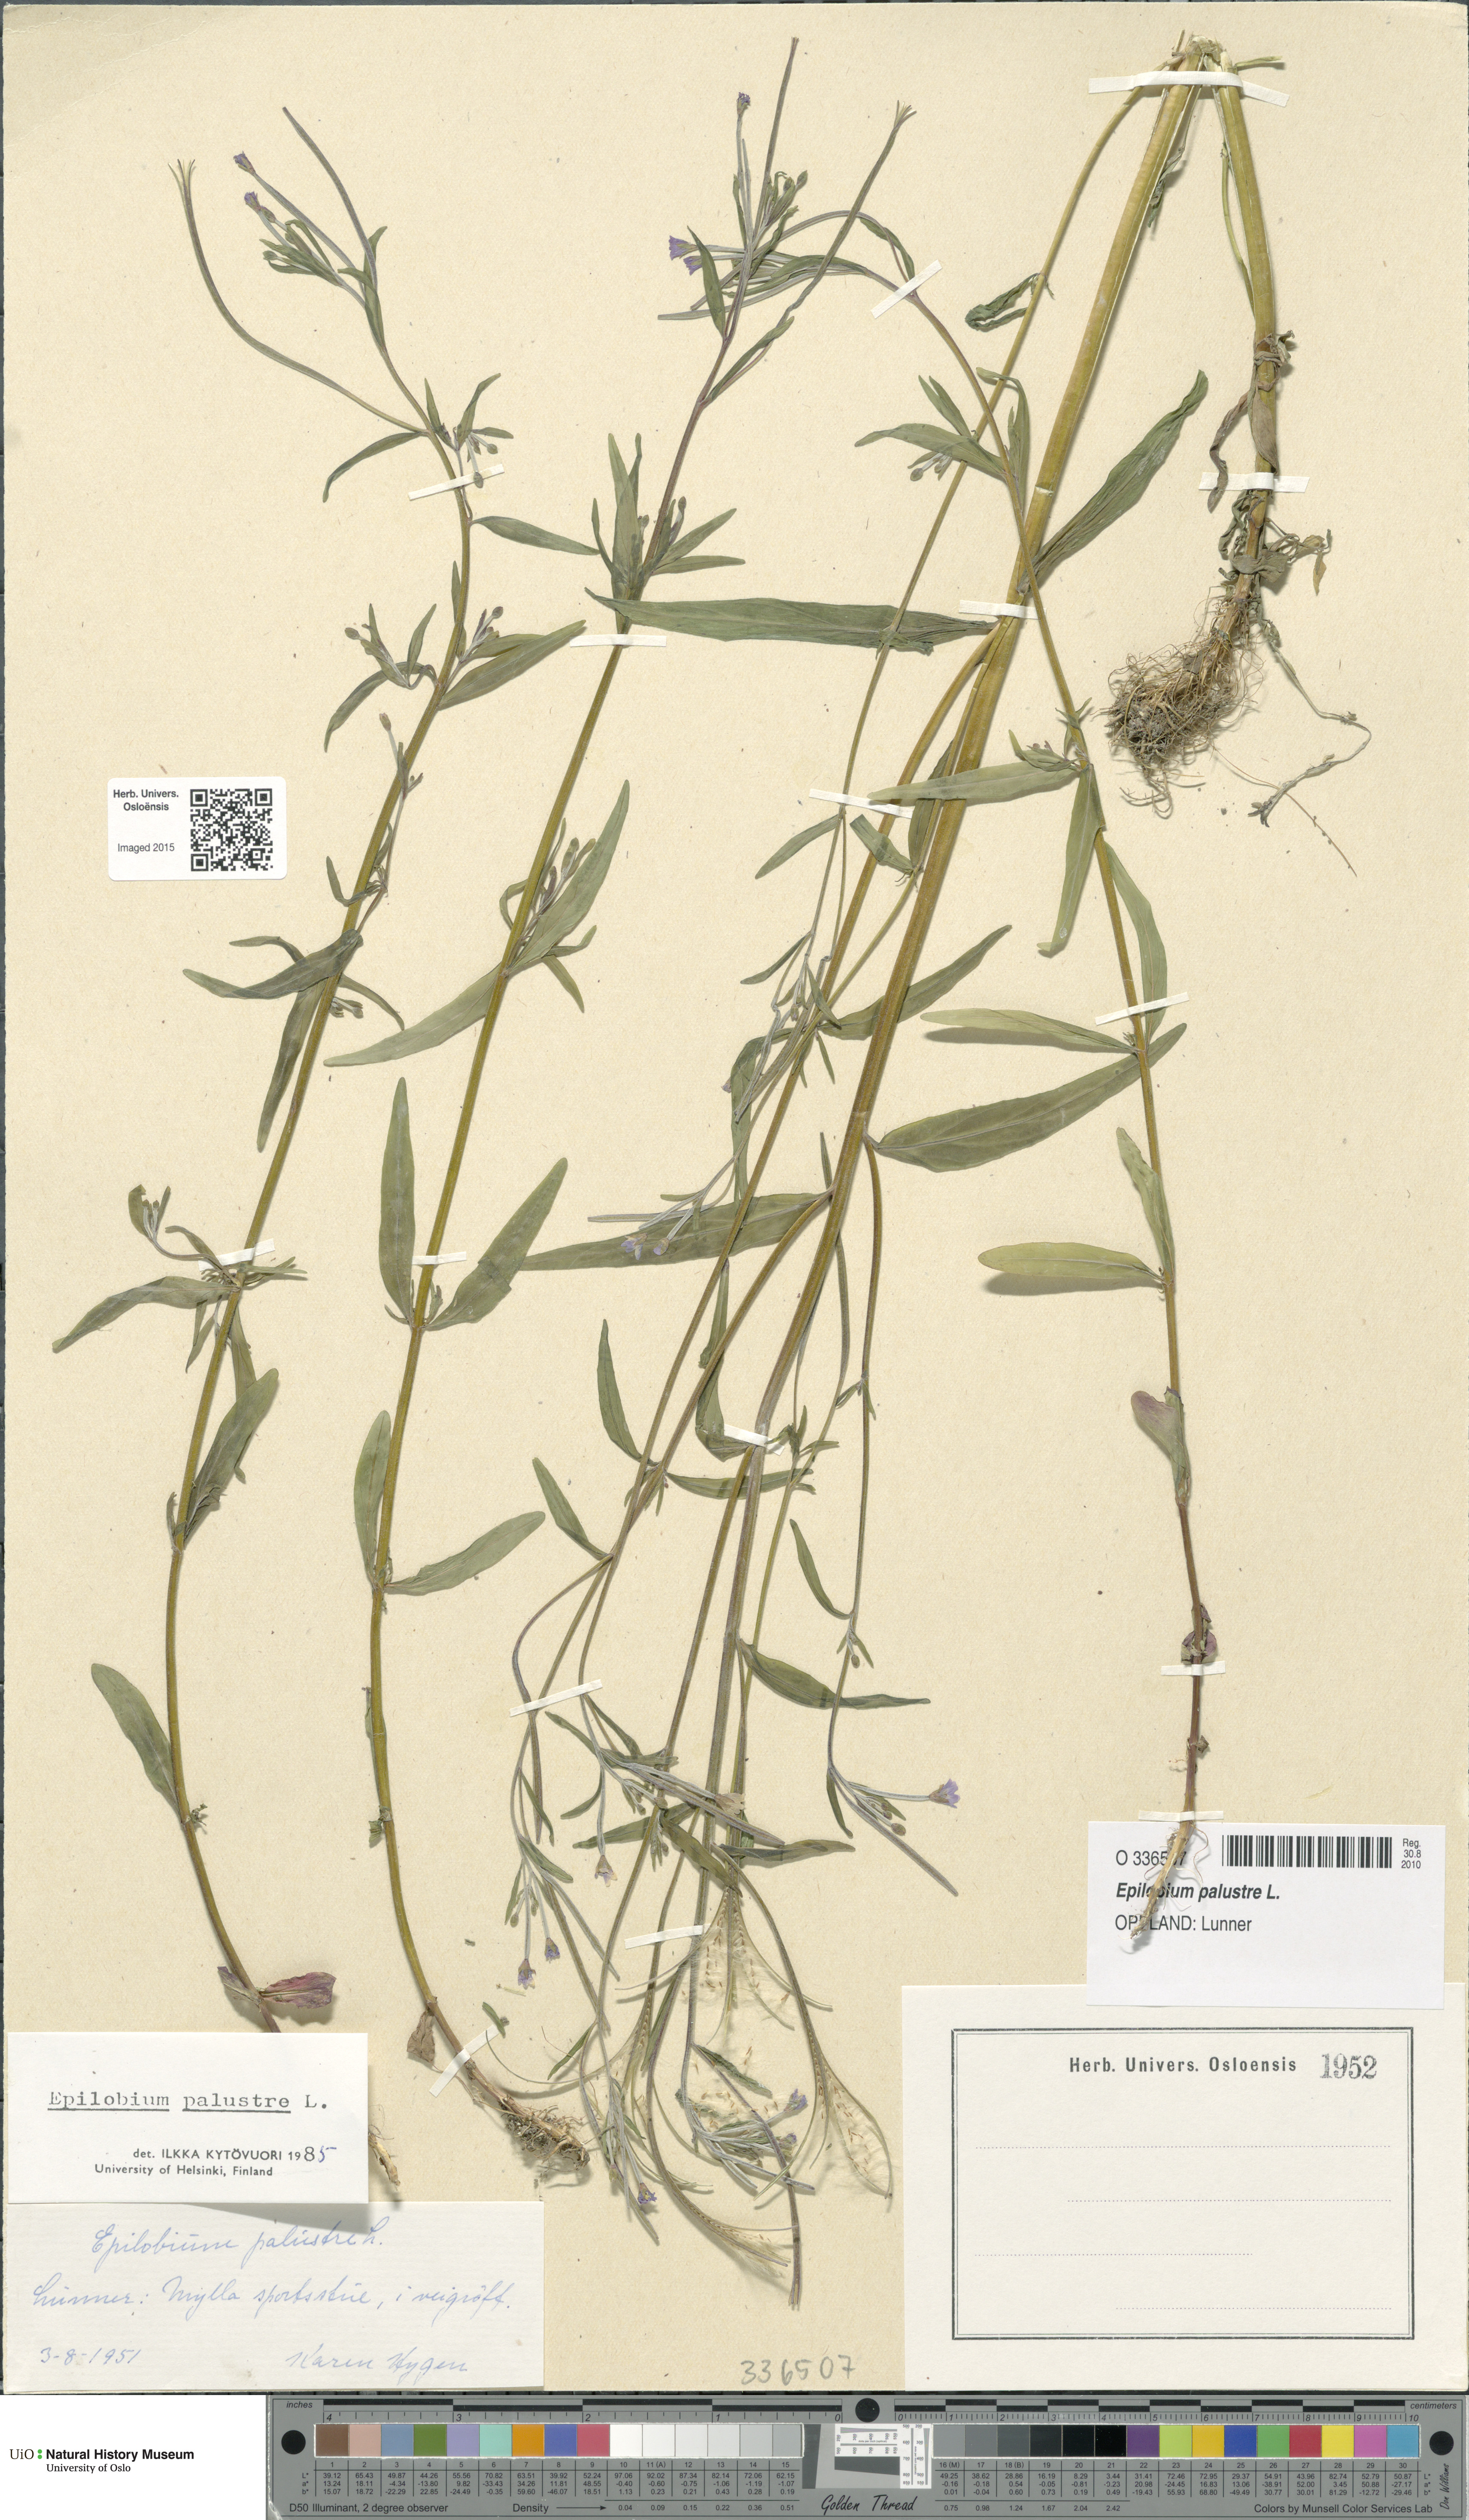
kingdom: Plantae
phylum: Tracheophyta
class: Magnoliopsida
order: Myrtales
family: Onagraceae
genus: Epilobium
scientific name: Epilobium palustre
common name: Marsh willowherb
